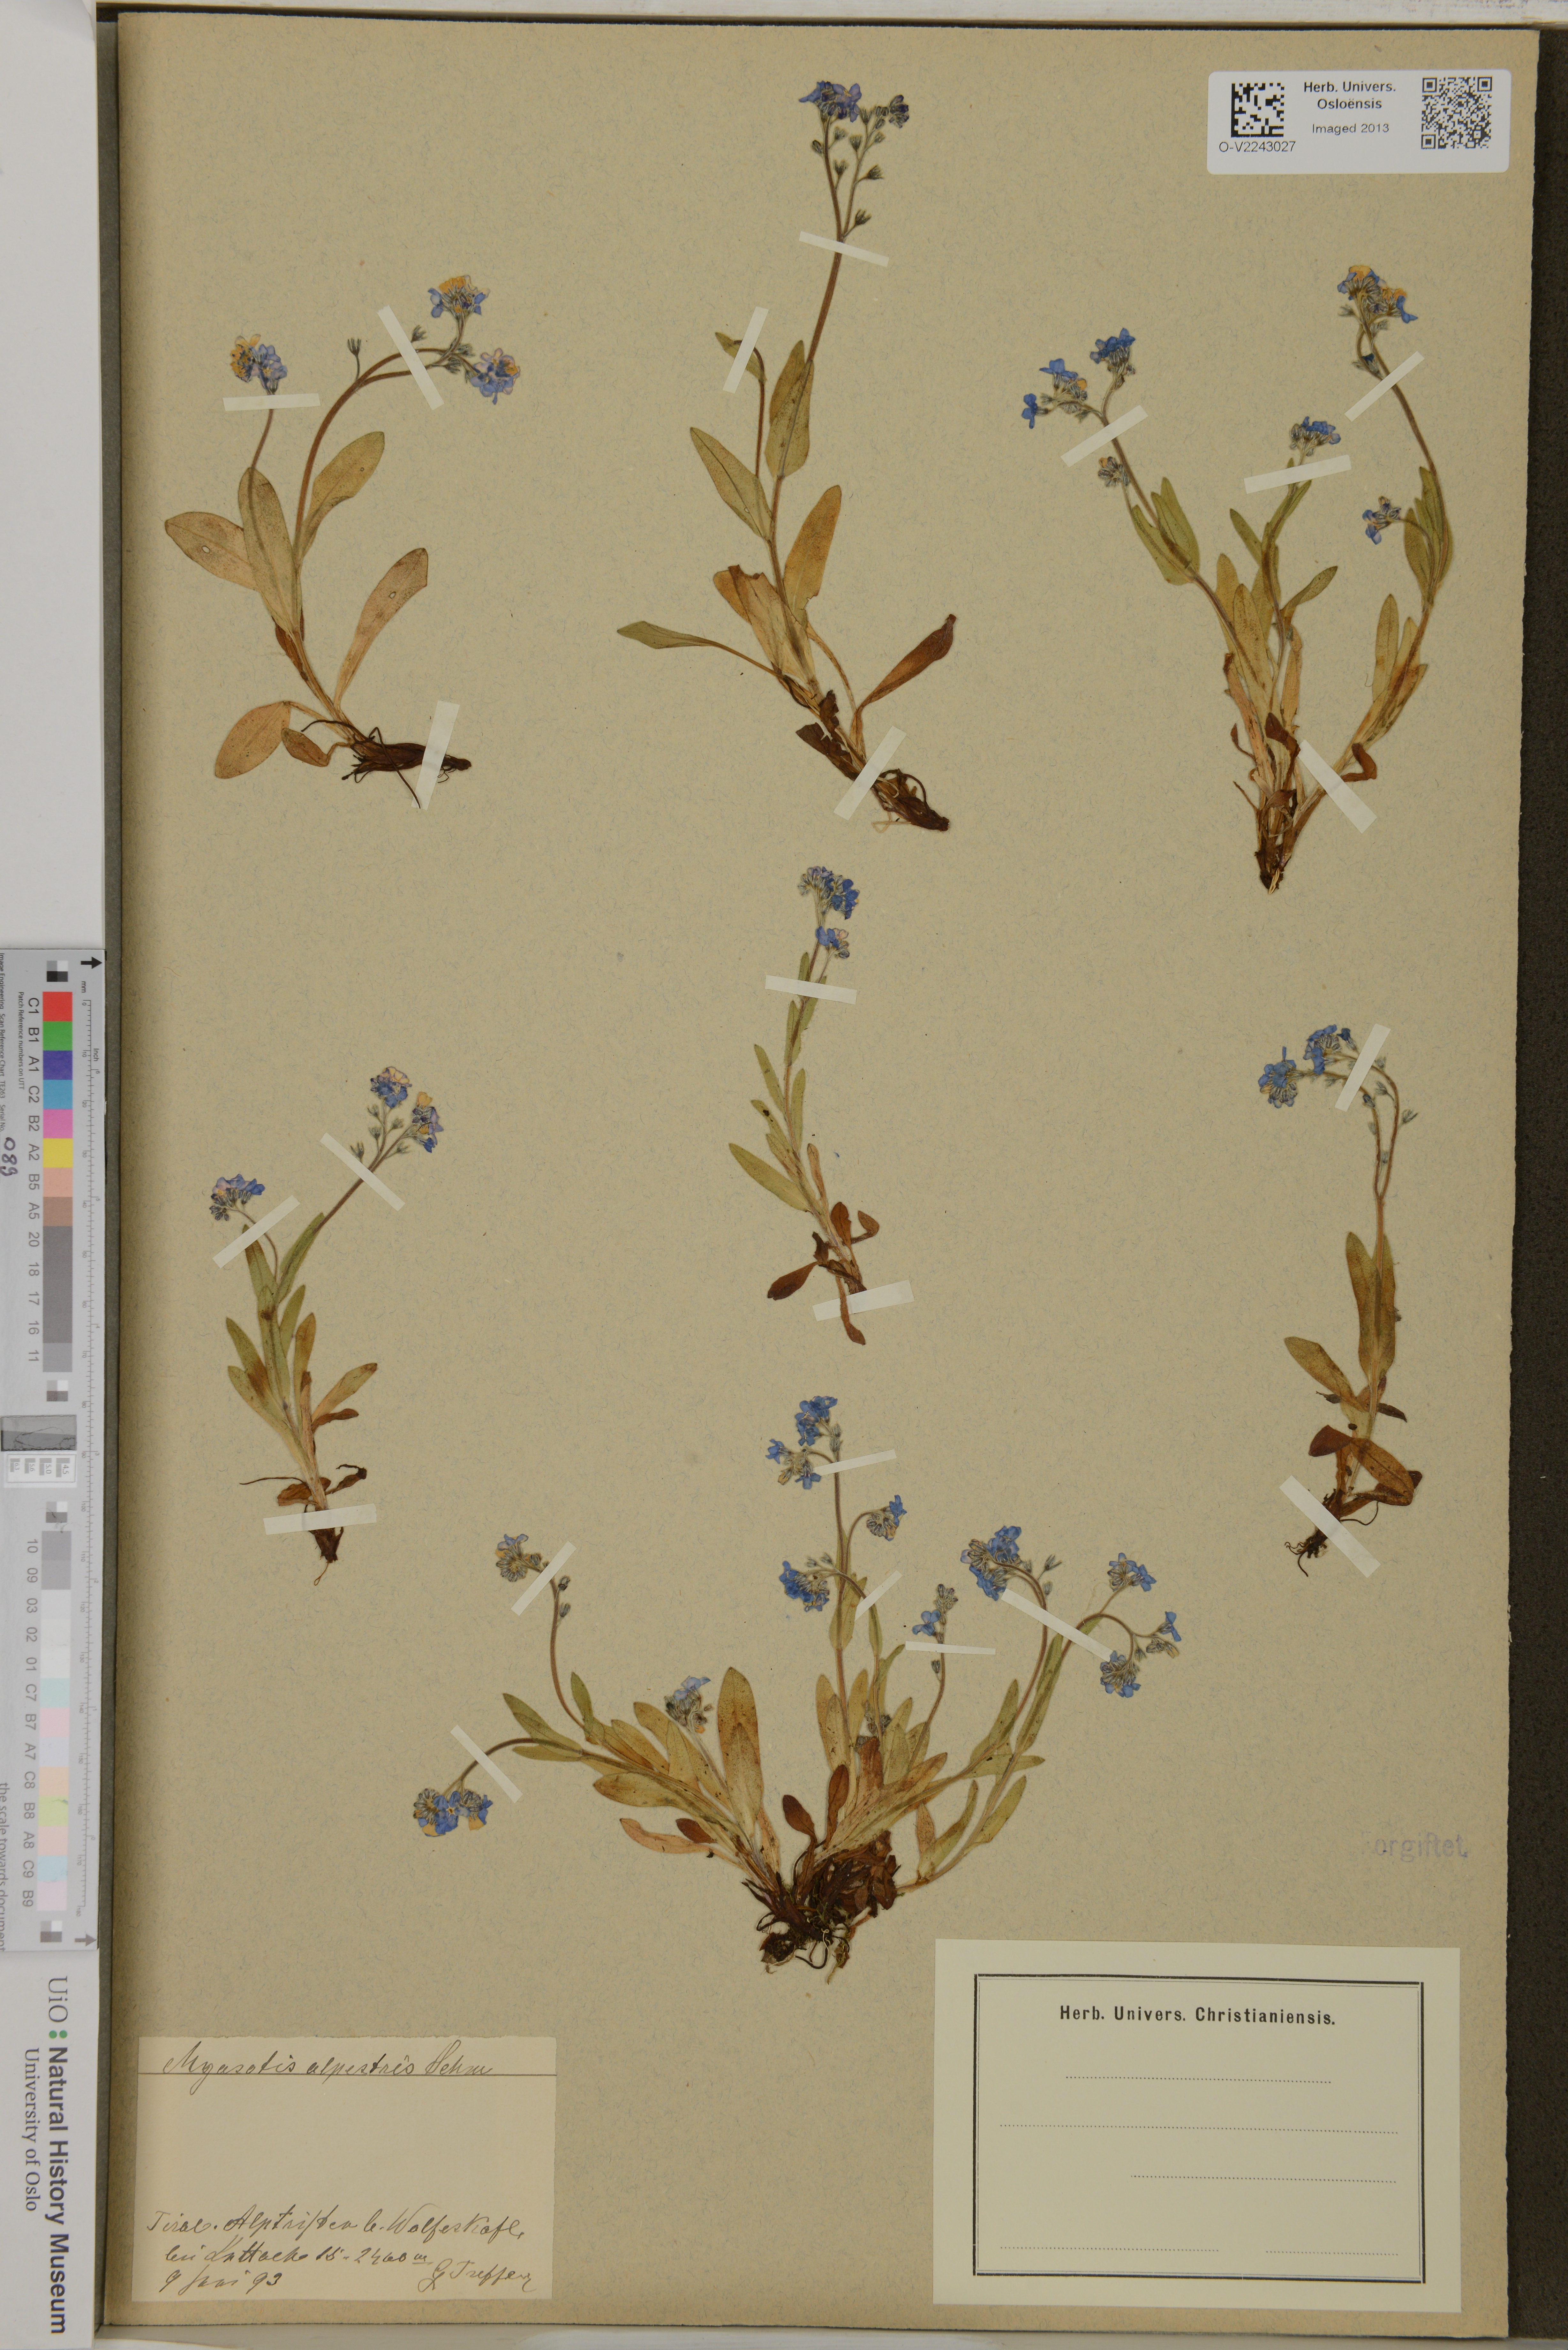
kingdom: Plantae
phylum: Tracheophyta
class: Magnoliopsida
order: Boraginales
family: Boraginaceae
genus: Myosotis
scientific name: Myosotis alpestris
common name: Alpine forget-me-not
